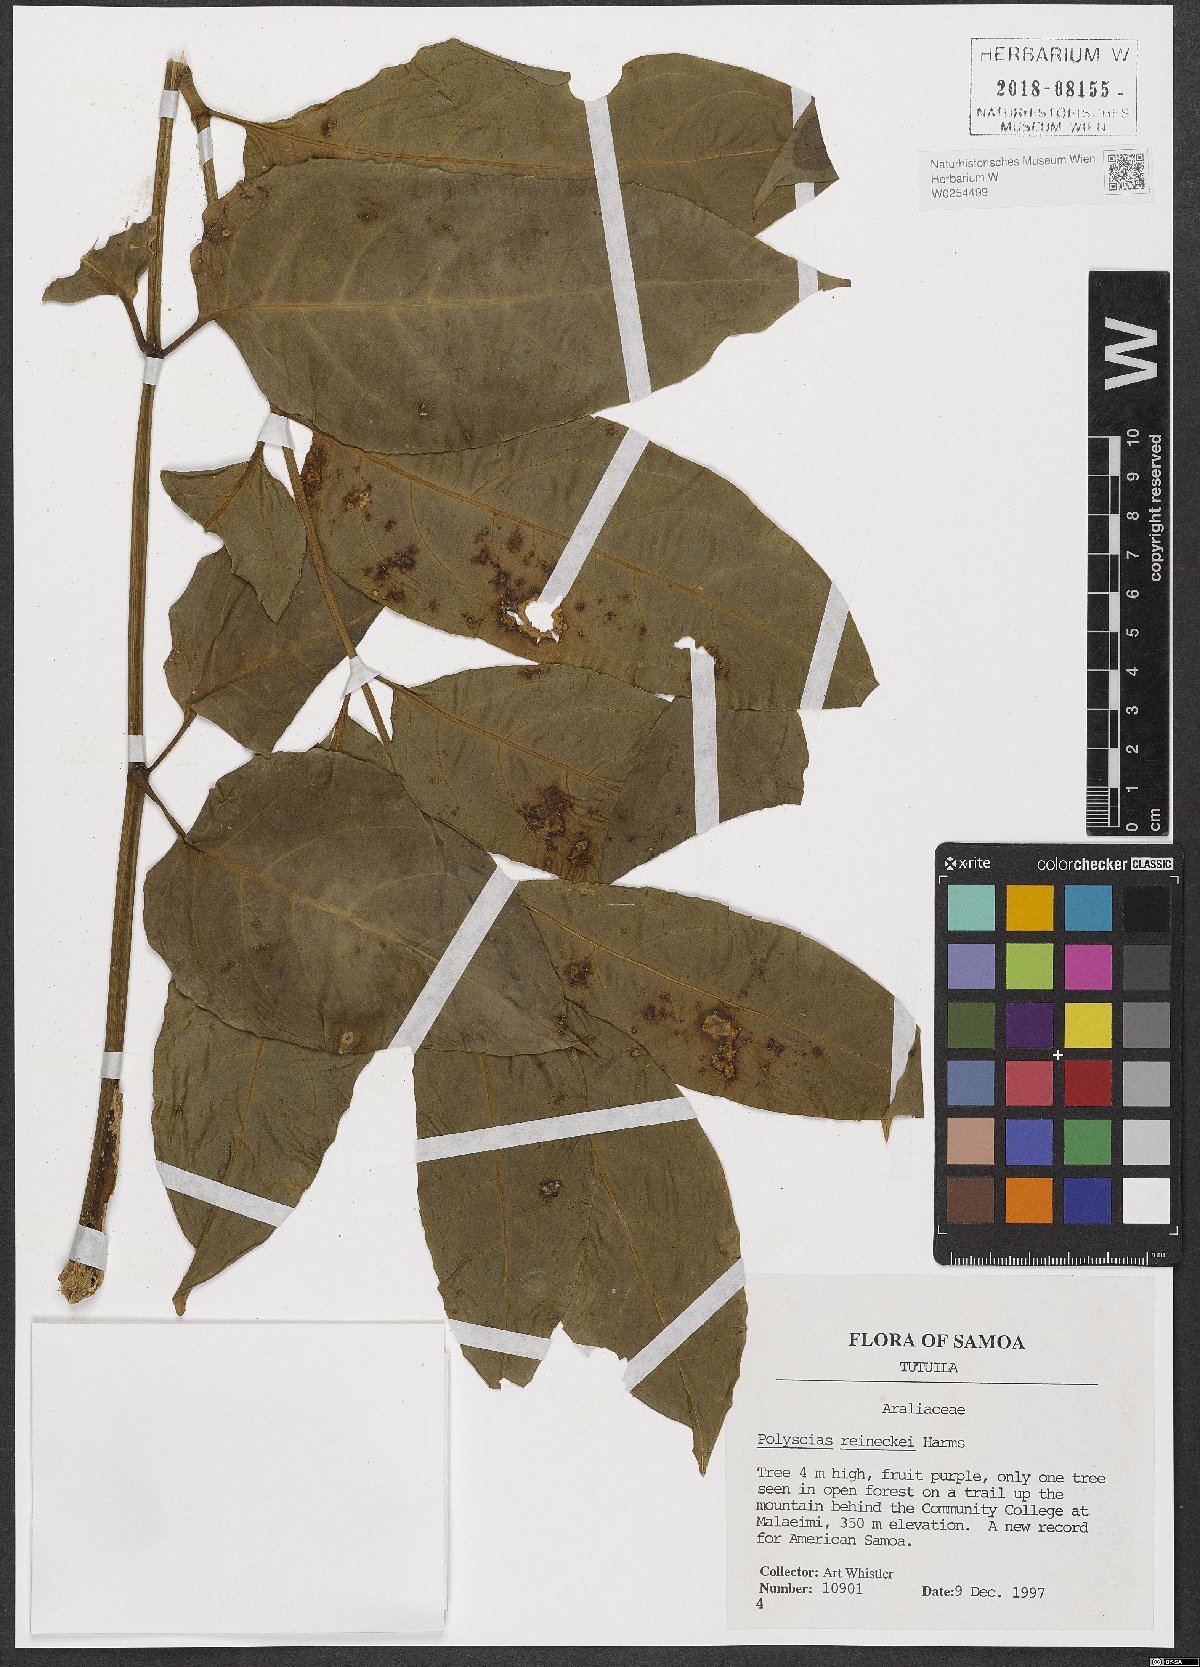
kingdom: Plantae
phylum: Tracheophyta
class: Magnoliopsida
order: Apiales
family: Araliaceae
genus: Polyscias
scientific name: Polyscias reineckei
